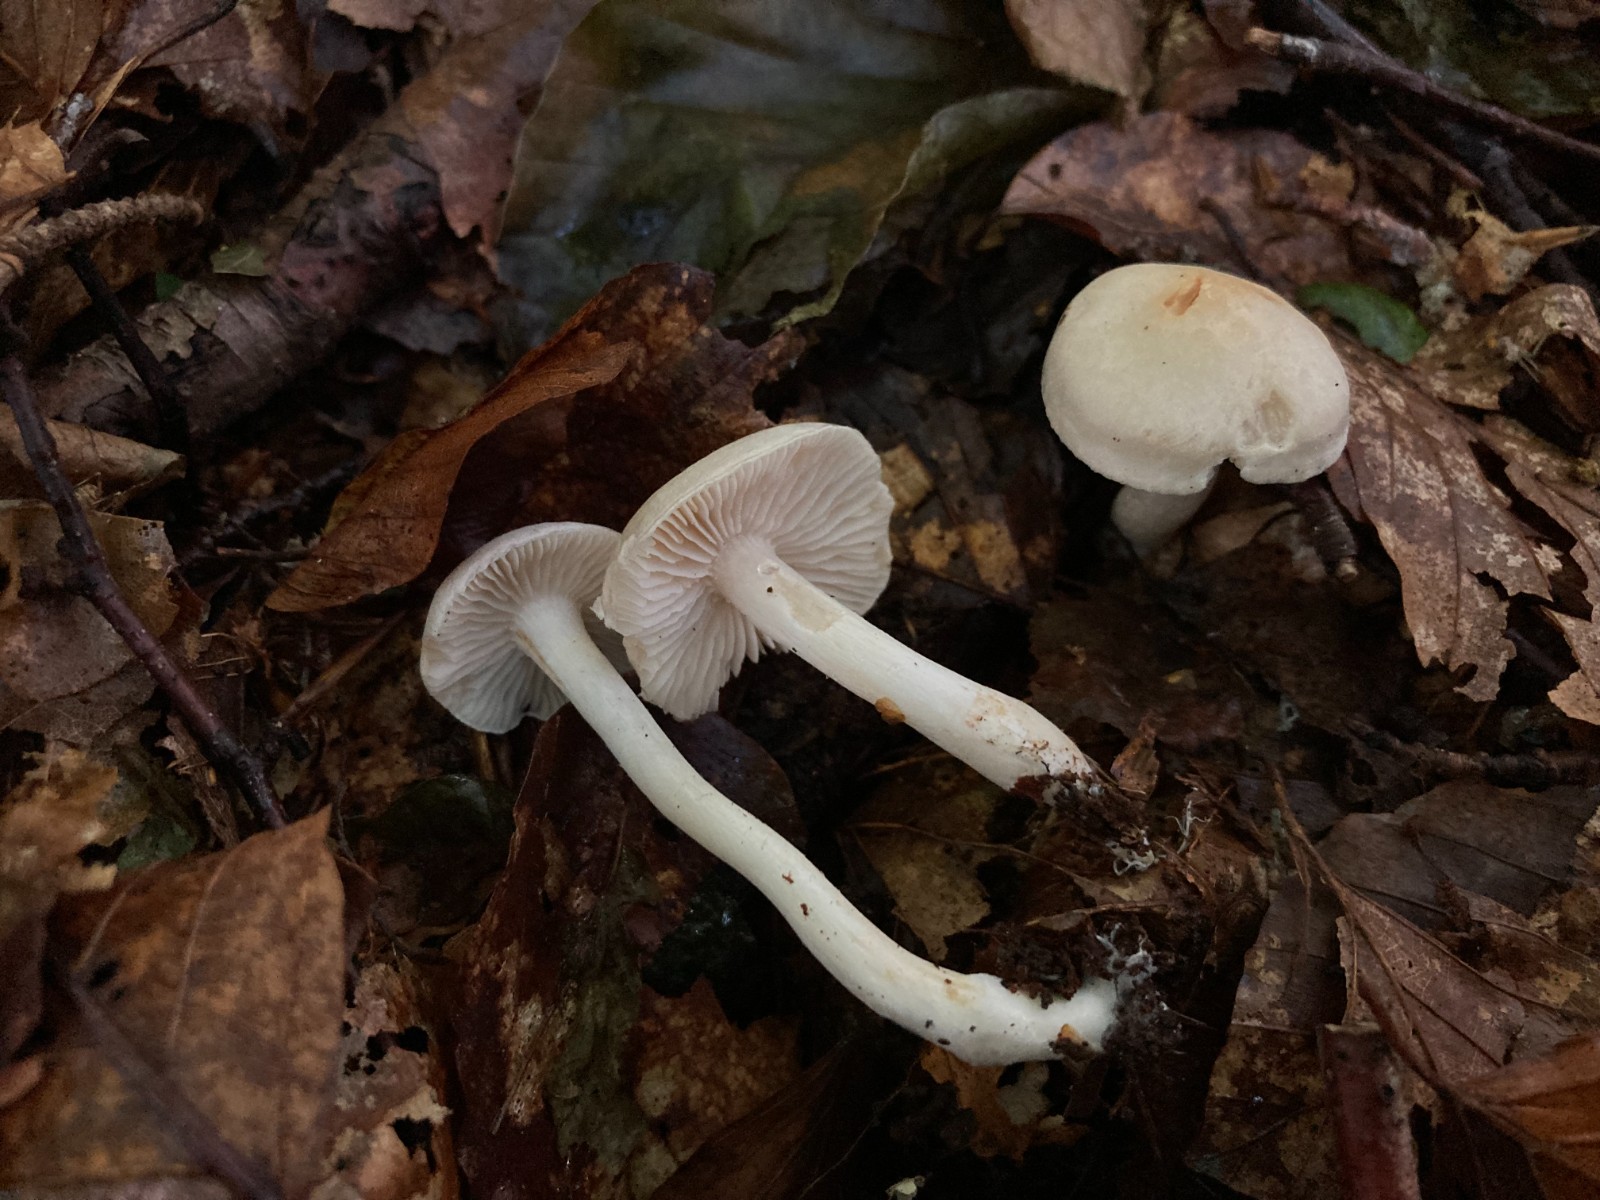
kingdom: Fungi
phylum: Basidiomycota
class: Agaricomycetes
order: Agaricales
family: Tricholomataceae
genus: Tricholoma
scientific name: Tricholoma lascivum
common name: stinkende ridderhat
